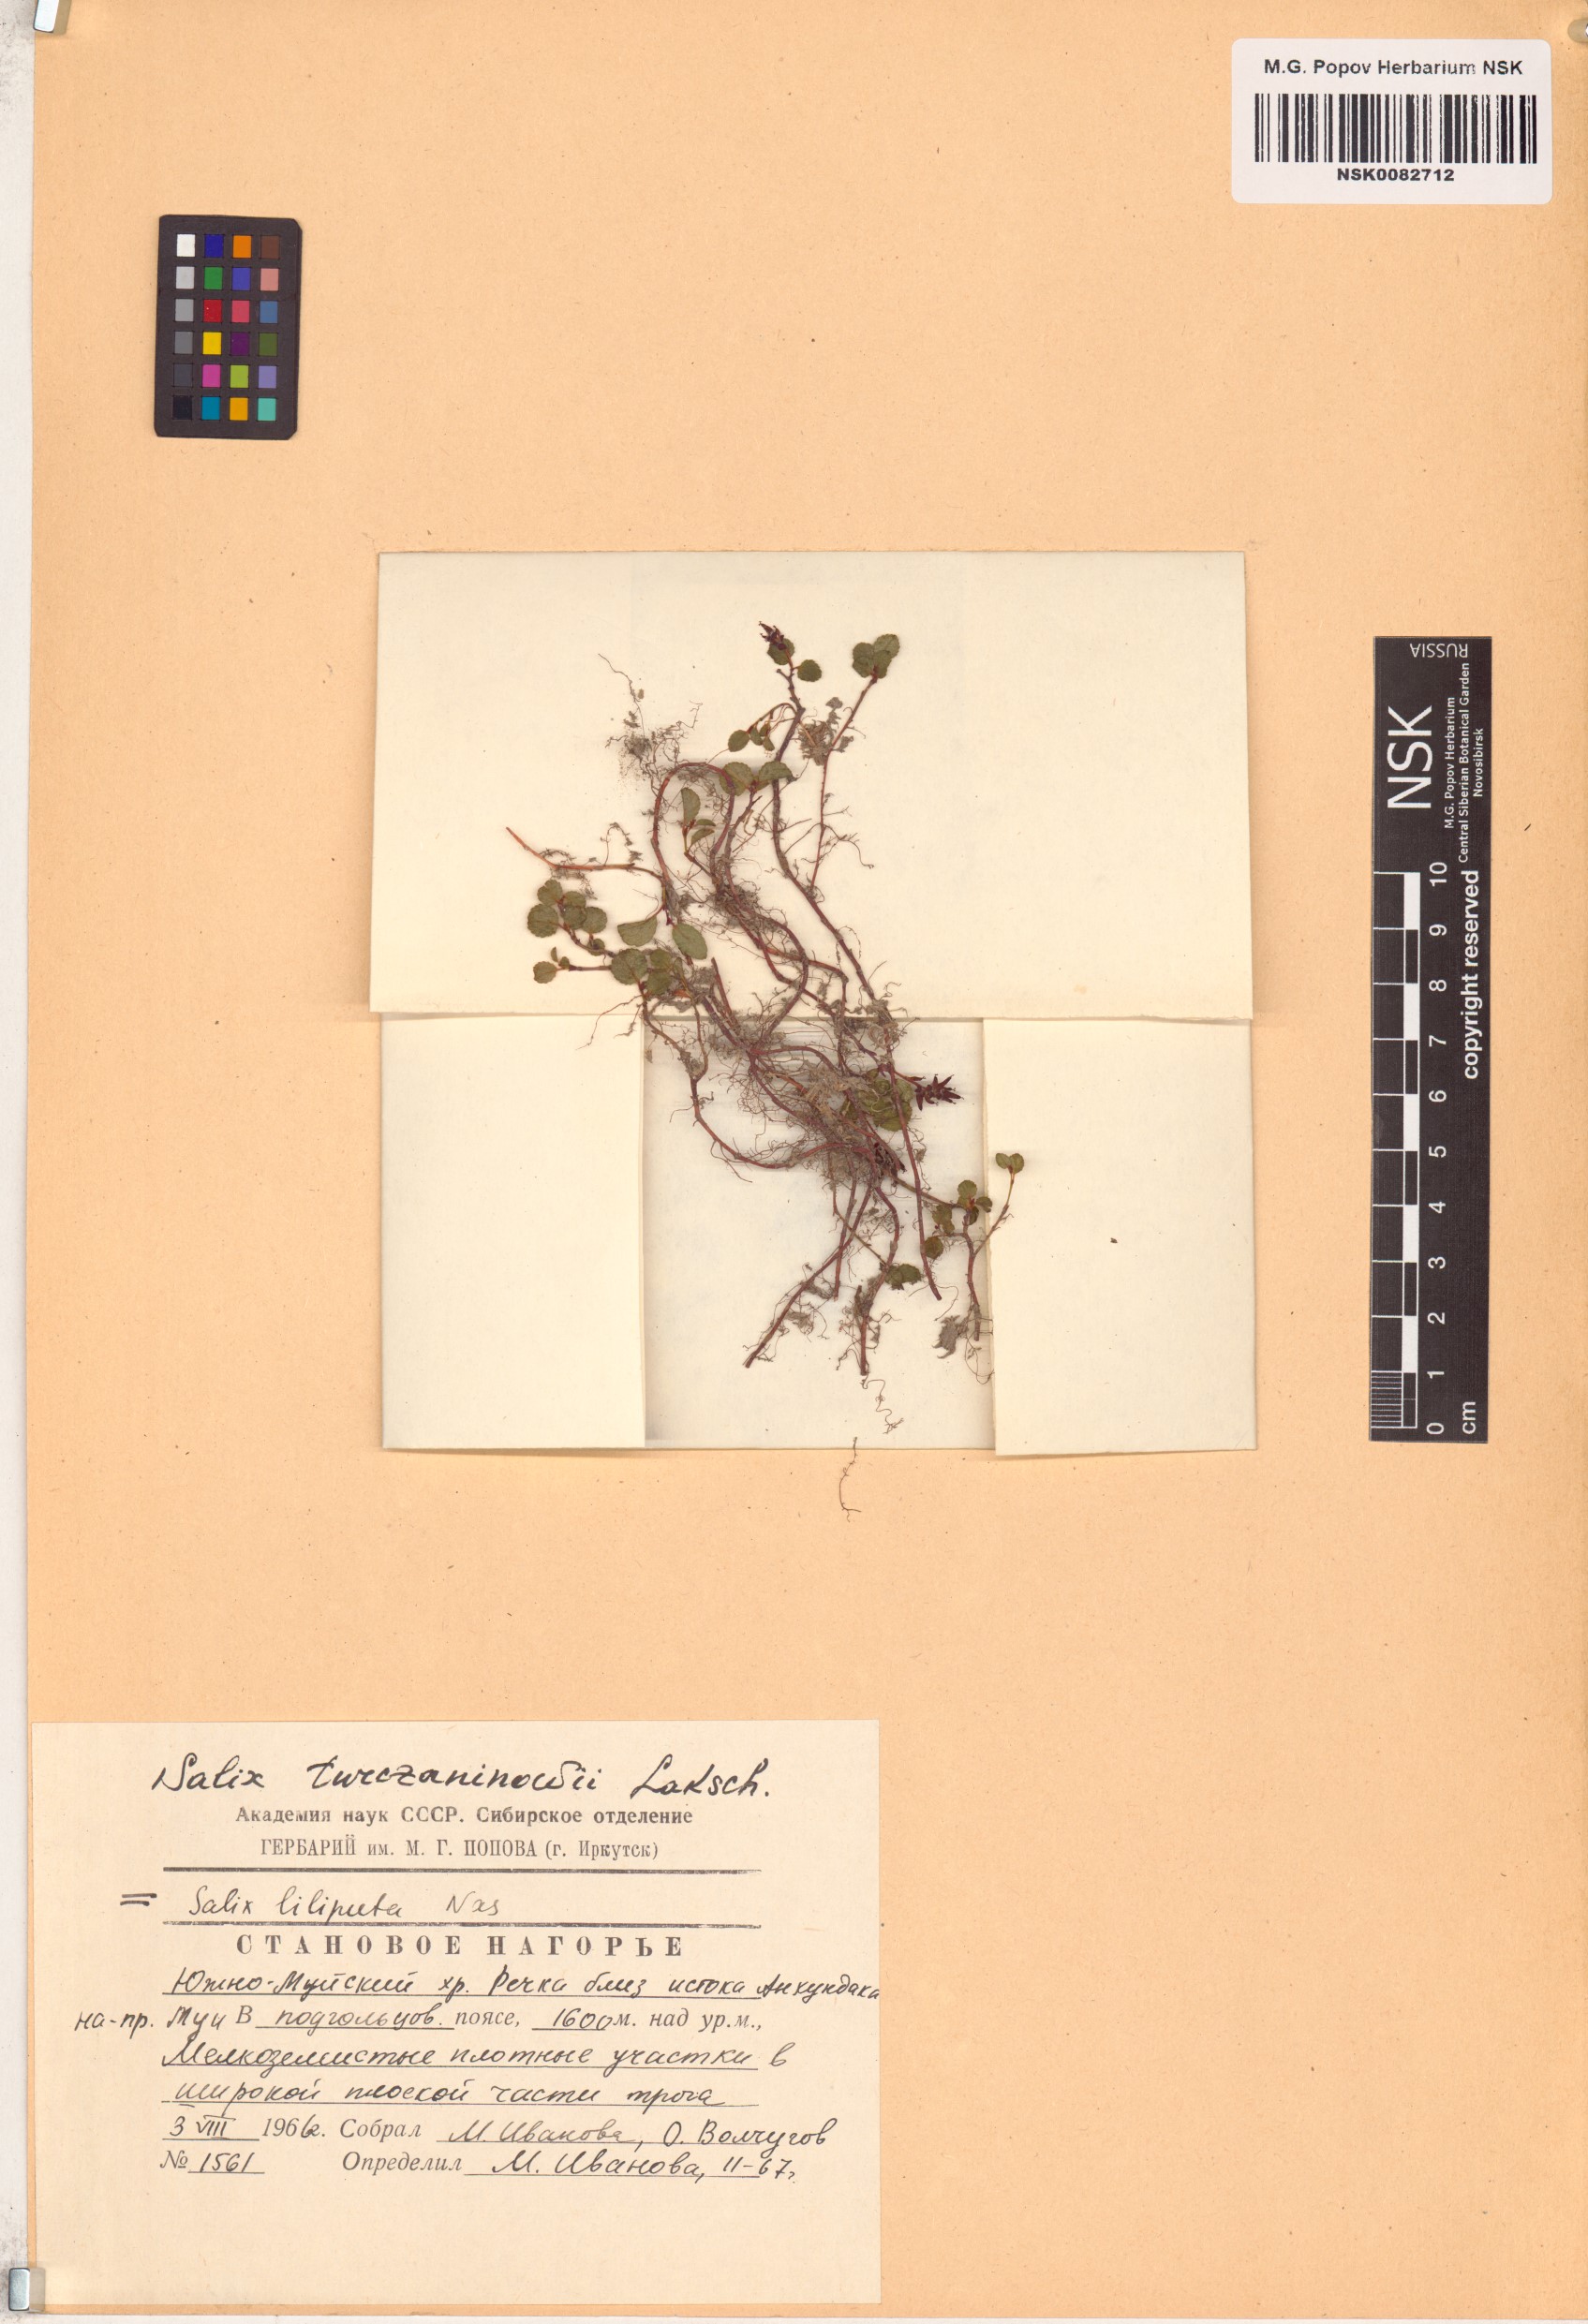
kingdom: Plantae
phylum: Tracheophyta
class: Magnoliopsida
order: Malpighiales
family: Salicaceae
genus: Salix
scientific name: Salix turczaninowii
